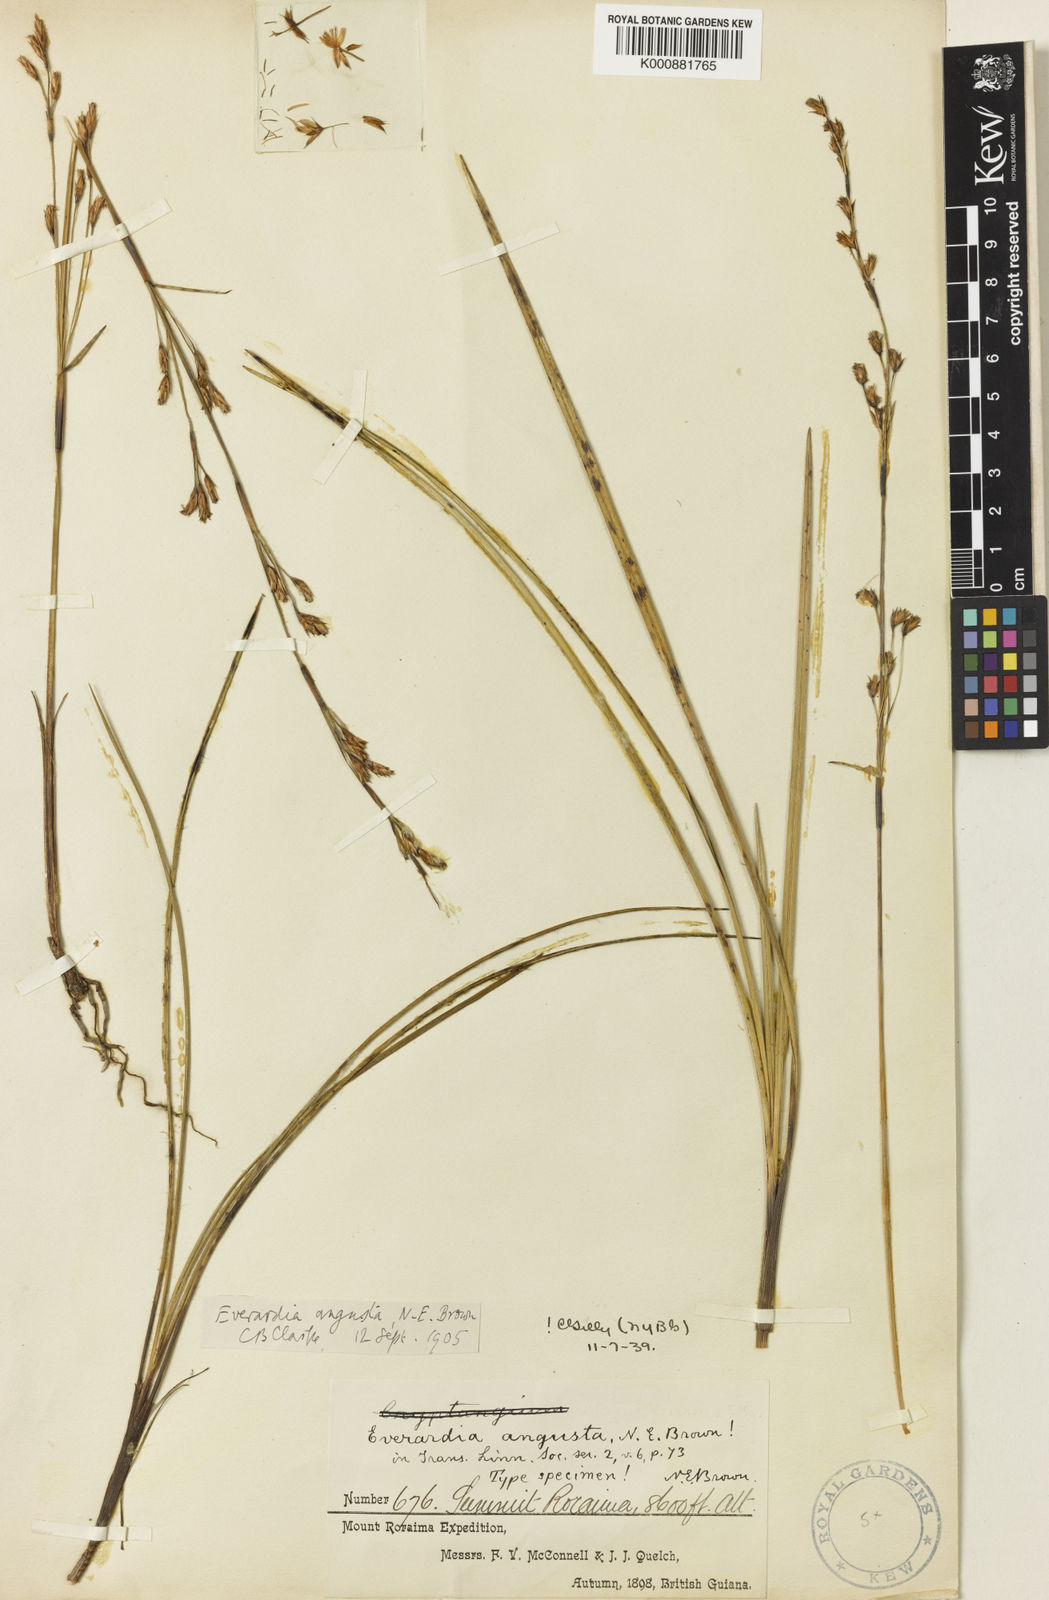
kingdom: Plantae
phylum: Tracheophyta
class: Liliopsida
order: Poales
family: Cyperaceae
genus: Cephalocarpus
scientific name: Cephalocarpus angustus
